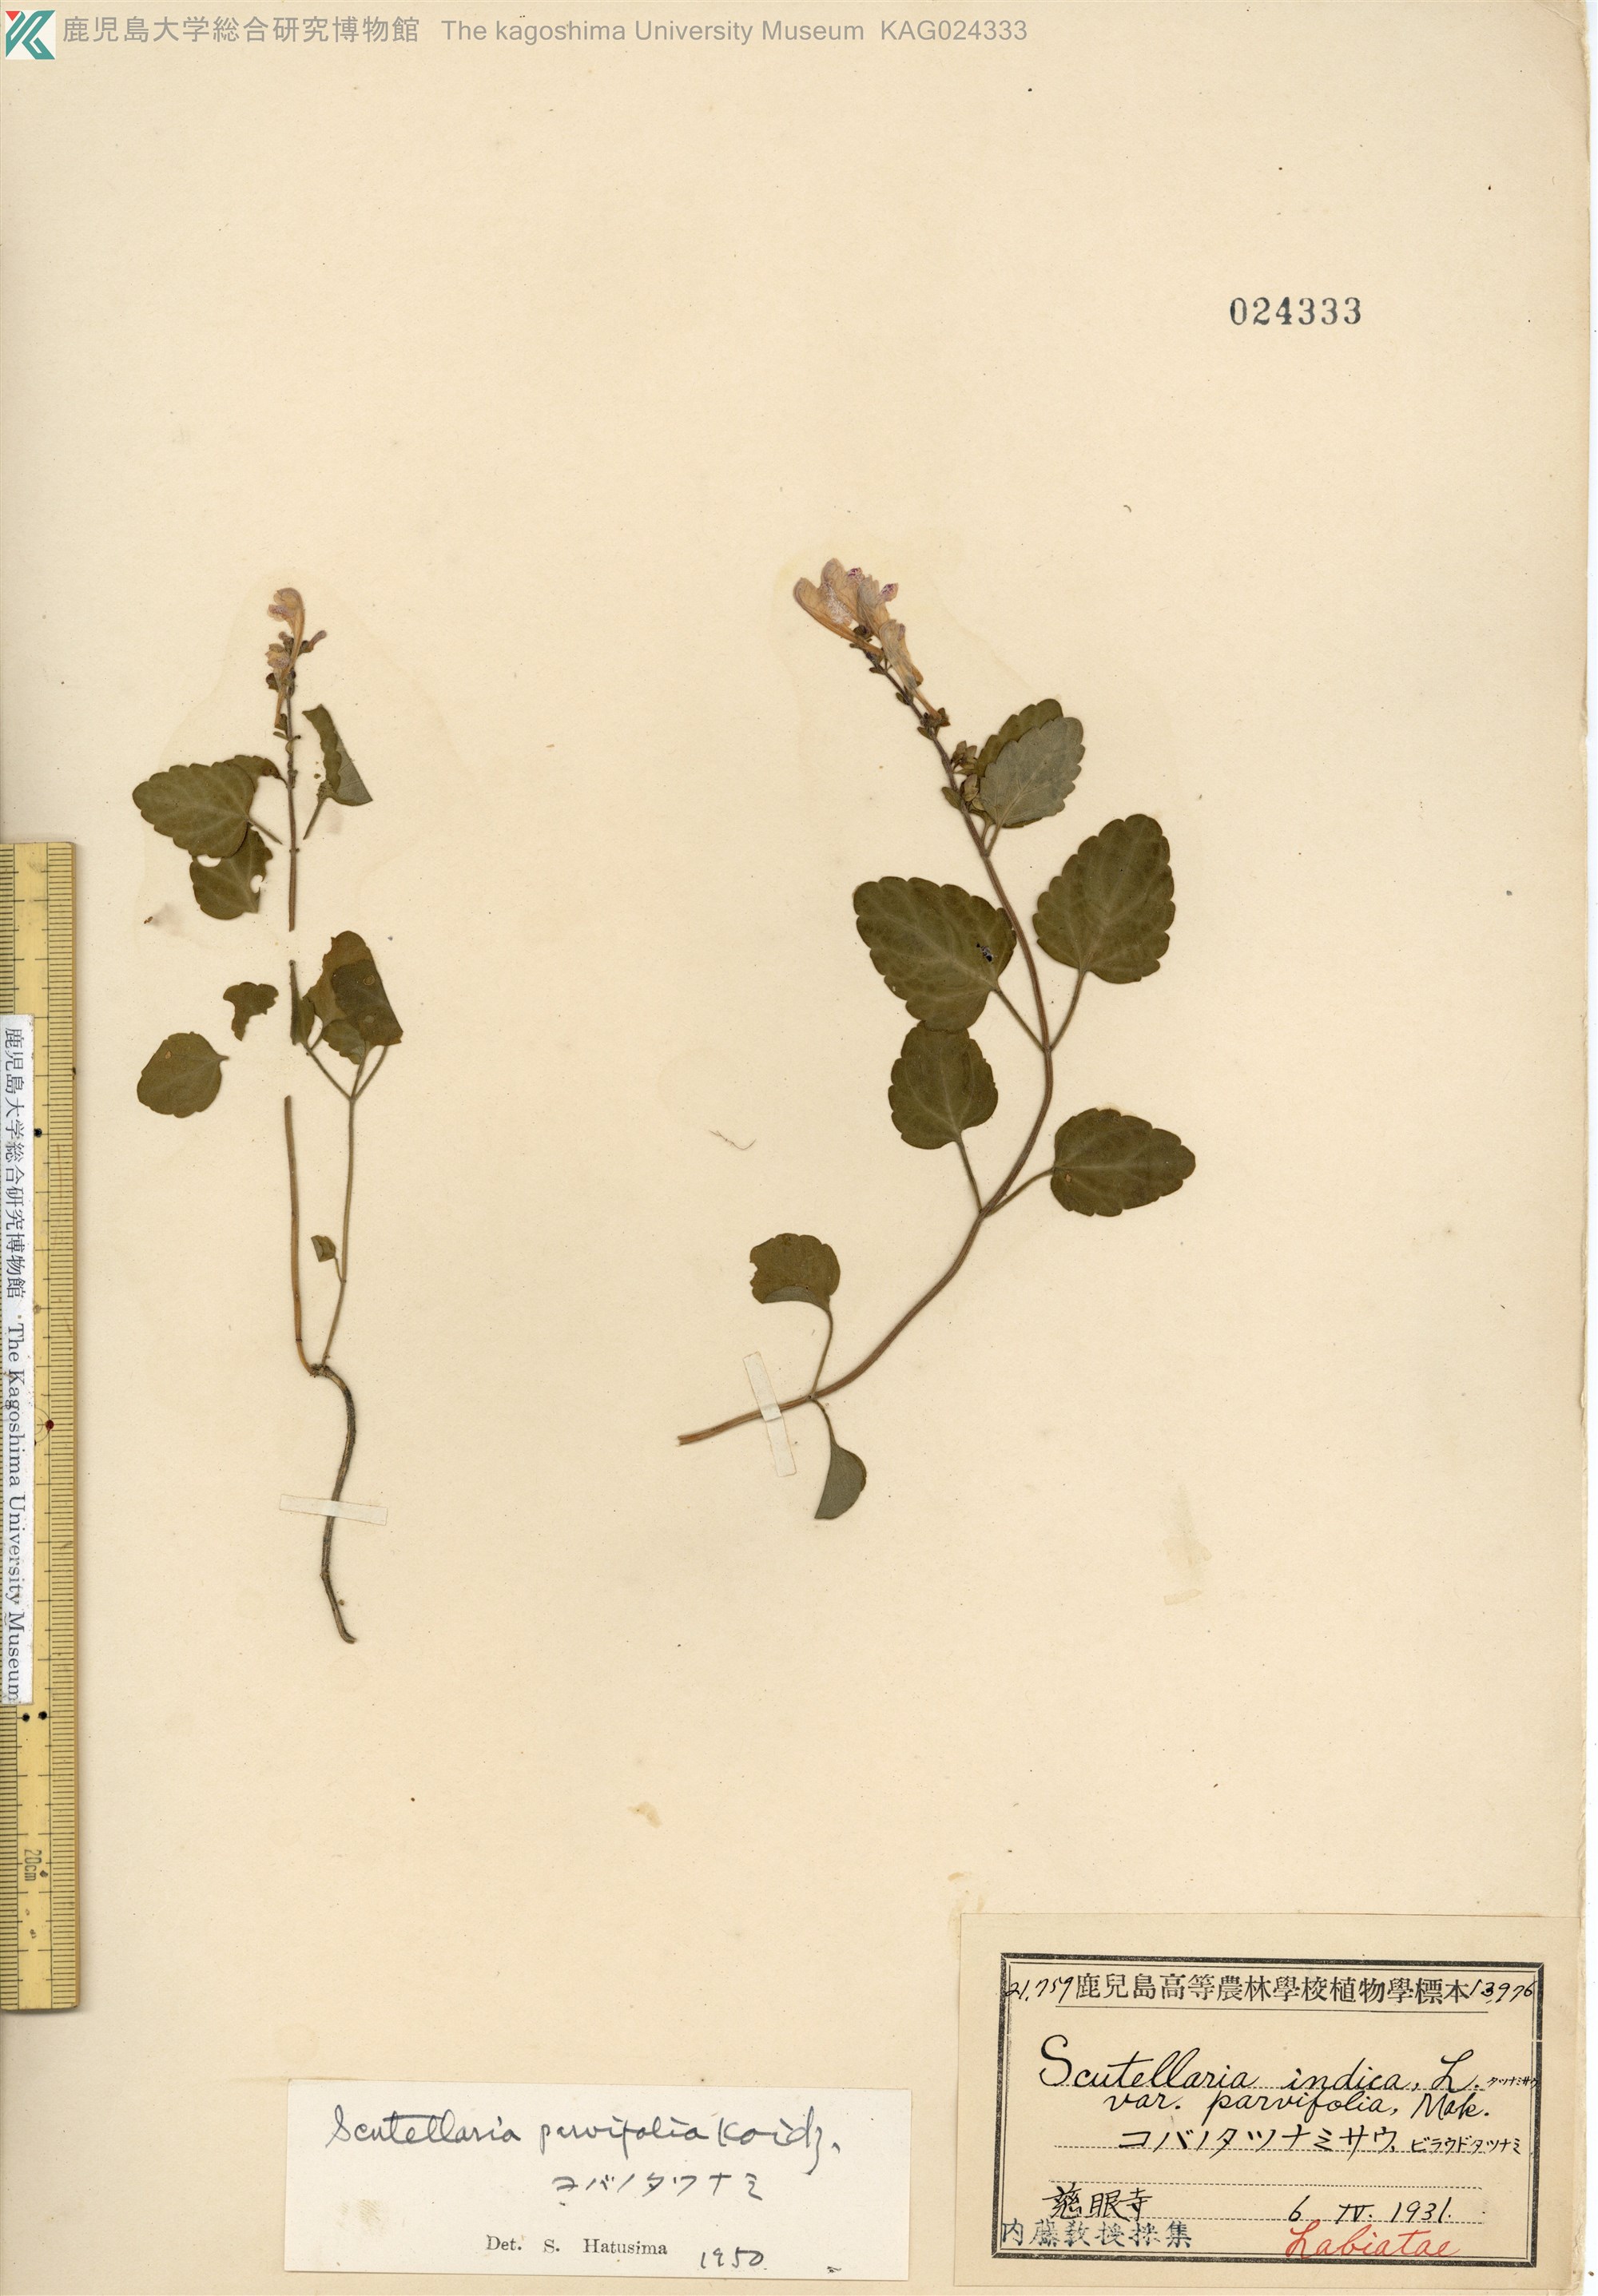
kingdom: Plantae
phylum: Tracheophyta
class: Magnoliopsida
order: Lamiales
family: Lamiaceae
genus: Scutellaria
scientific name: Scutellaria indica
